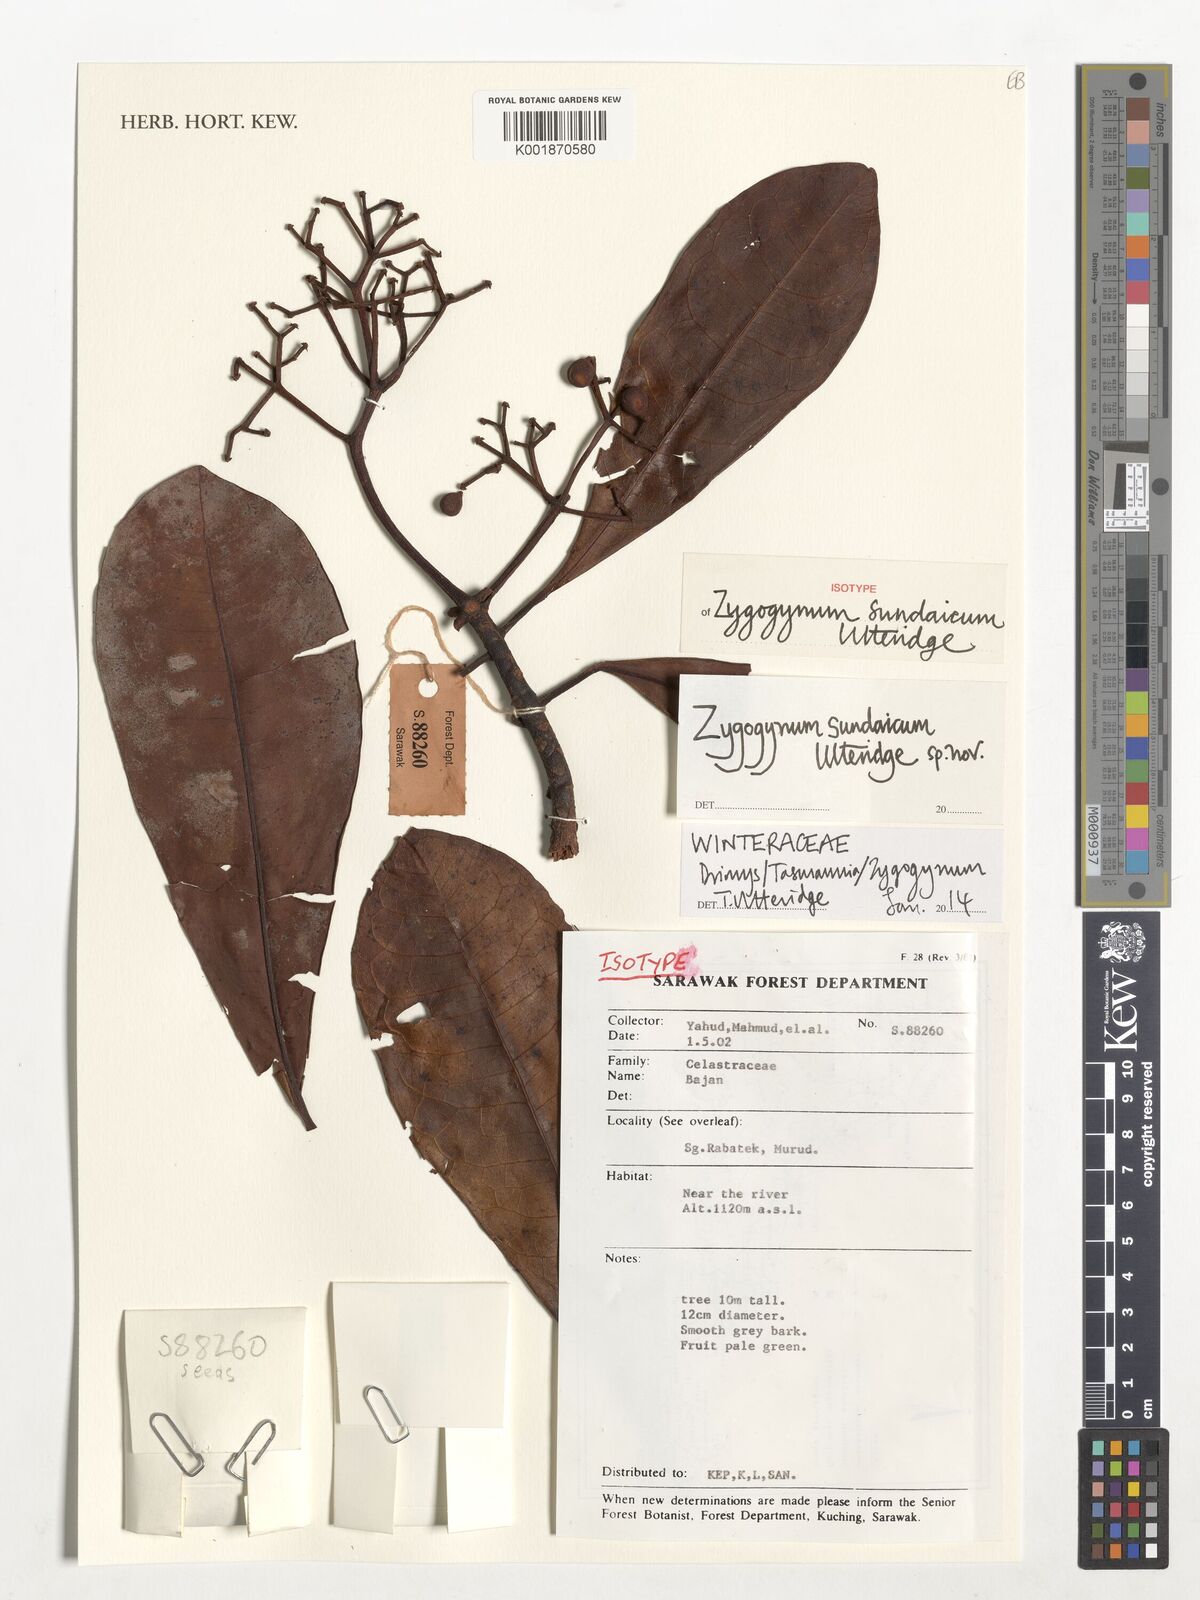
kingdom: Plantae
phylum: Tracheophyta
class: Magnoliopsida
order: Canellales
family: Winteraceae
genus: Zygogynum
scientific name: Zygogynum
